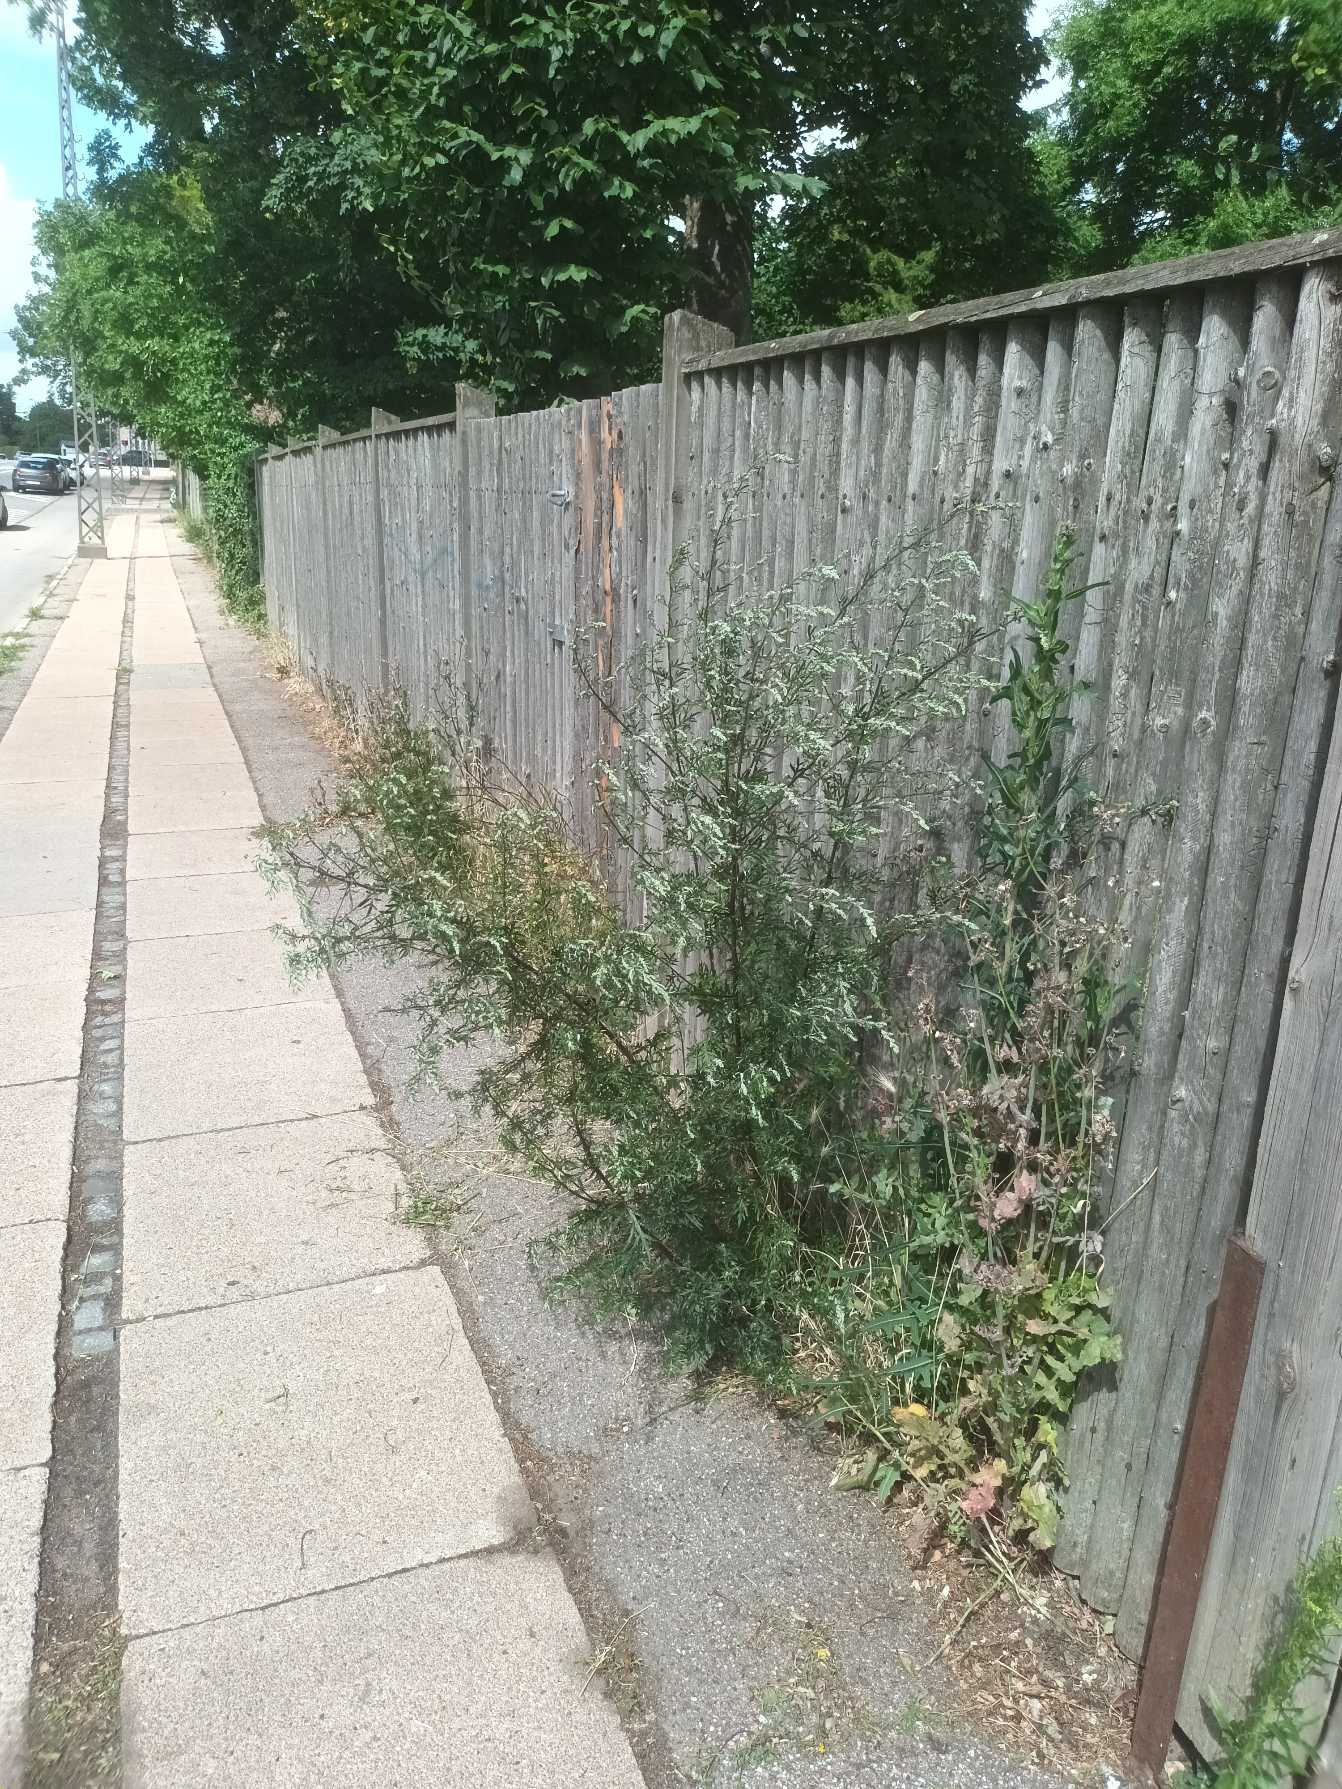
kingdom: Plantae
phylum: Tracheophyta
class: Magnoliopsida
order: Asterales
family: Asteraceae
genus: Artemisia
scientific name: Artemisia vulgaris
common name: Grå-bynke
